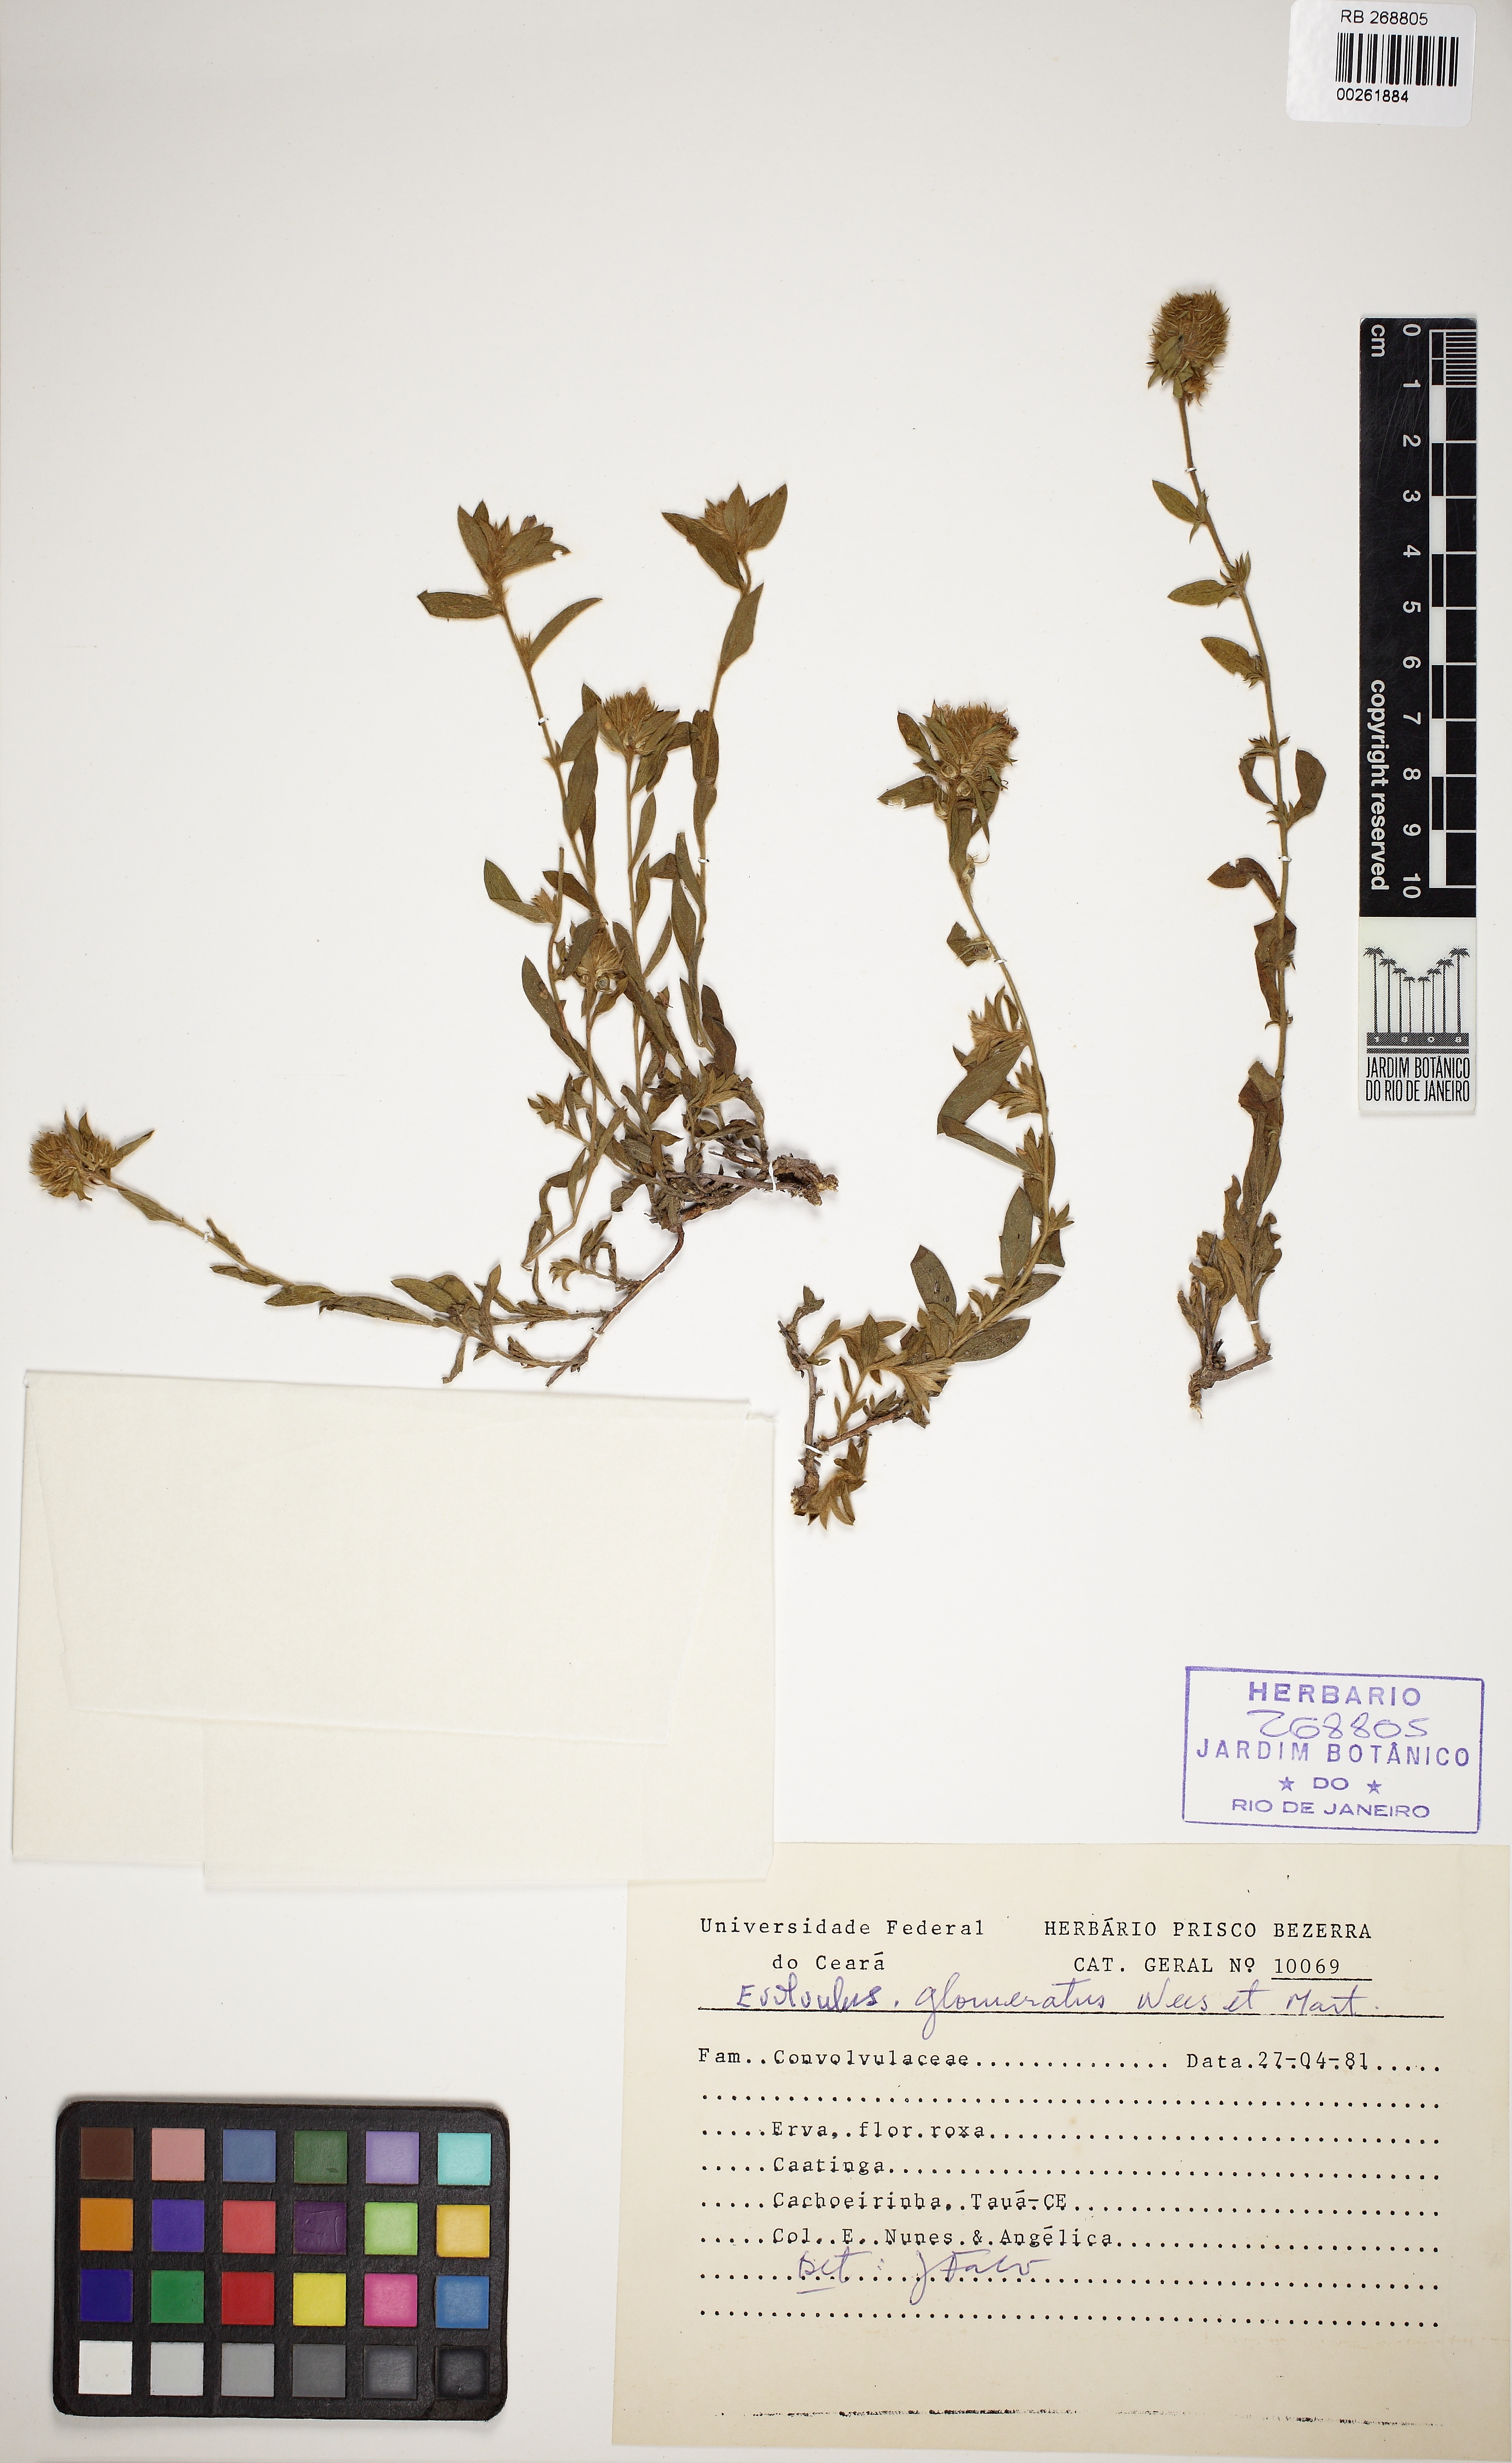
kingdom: Plantae
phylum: Tracheophyta
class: Magnoliopsida
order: Solanales
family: Convolvulaceae
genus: Evolvulus
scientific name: Evolvulus glomeratus
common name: Brazilian dwarf morning-glory
